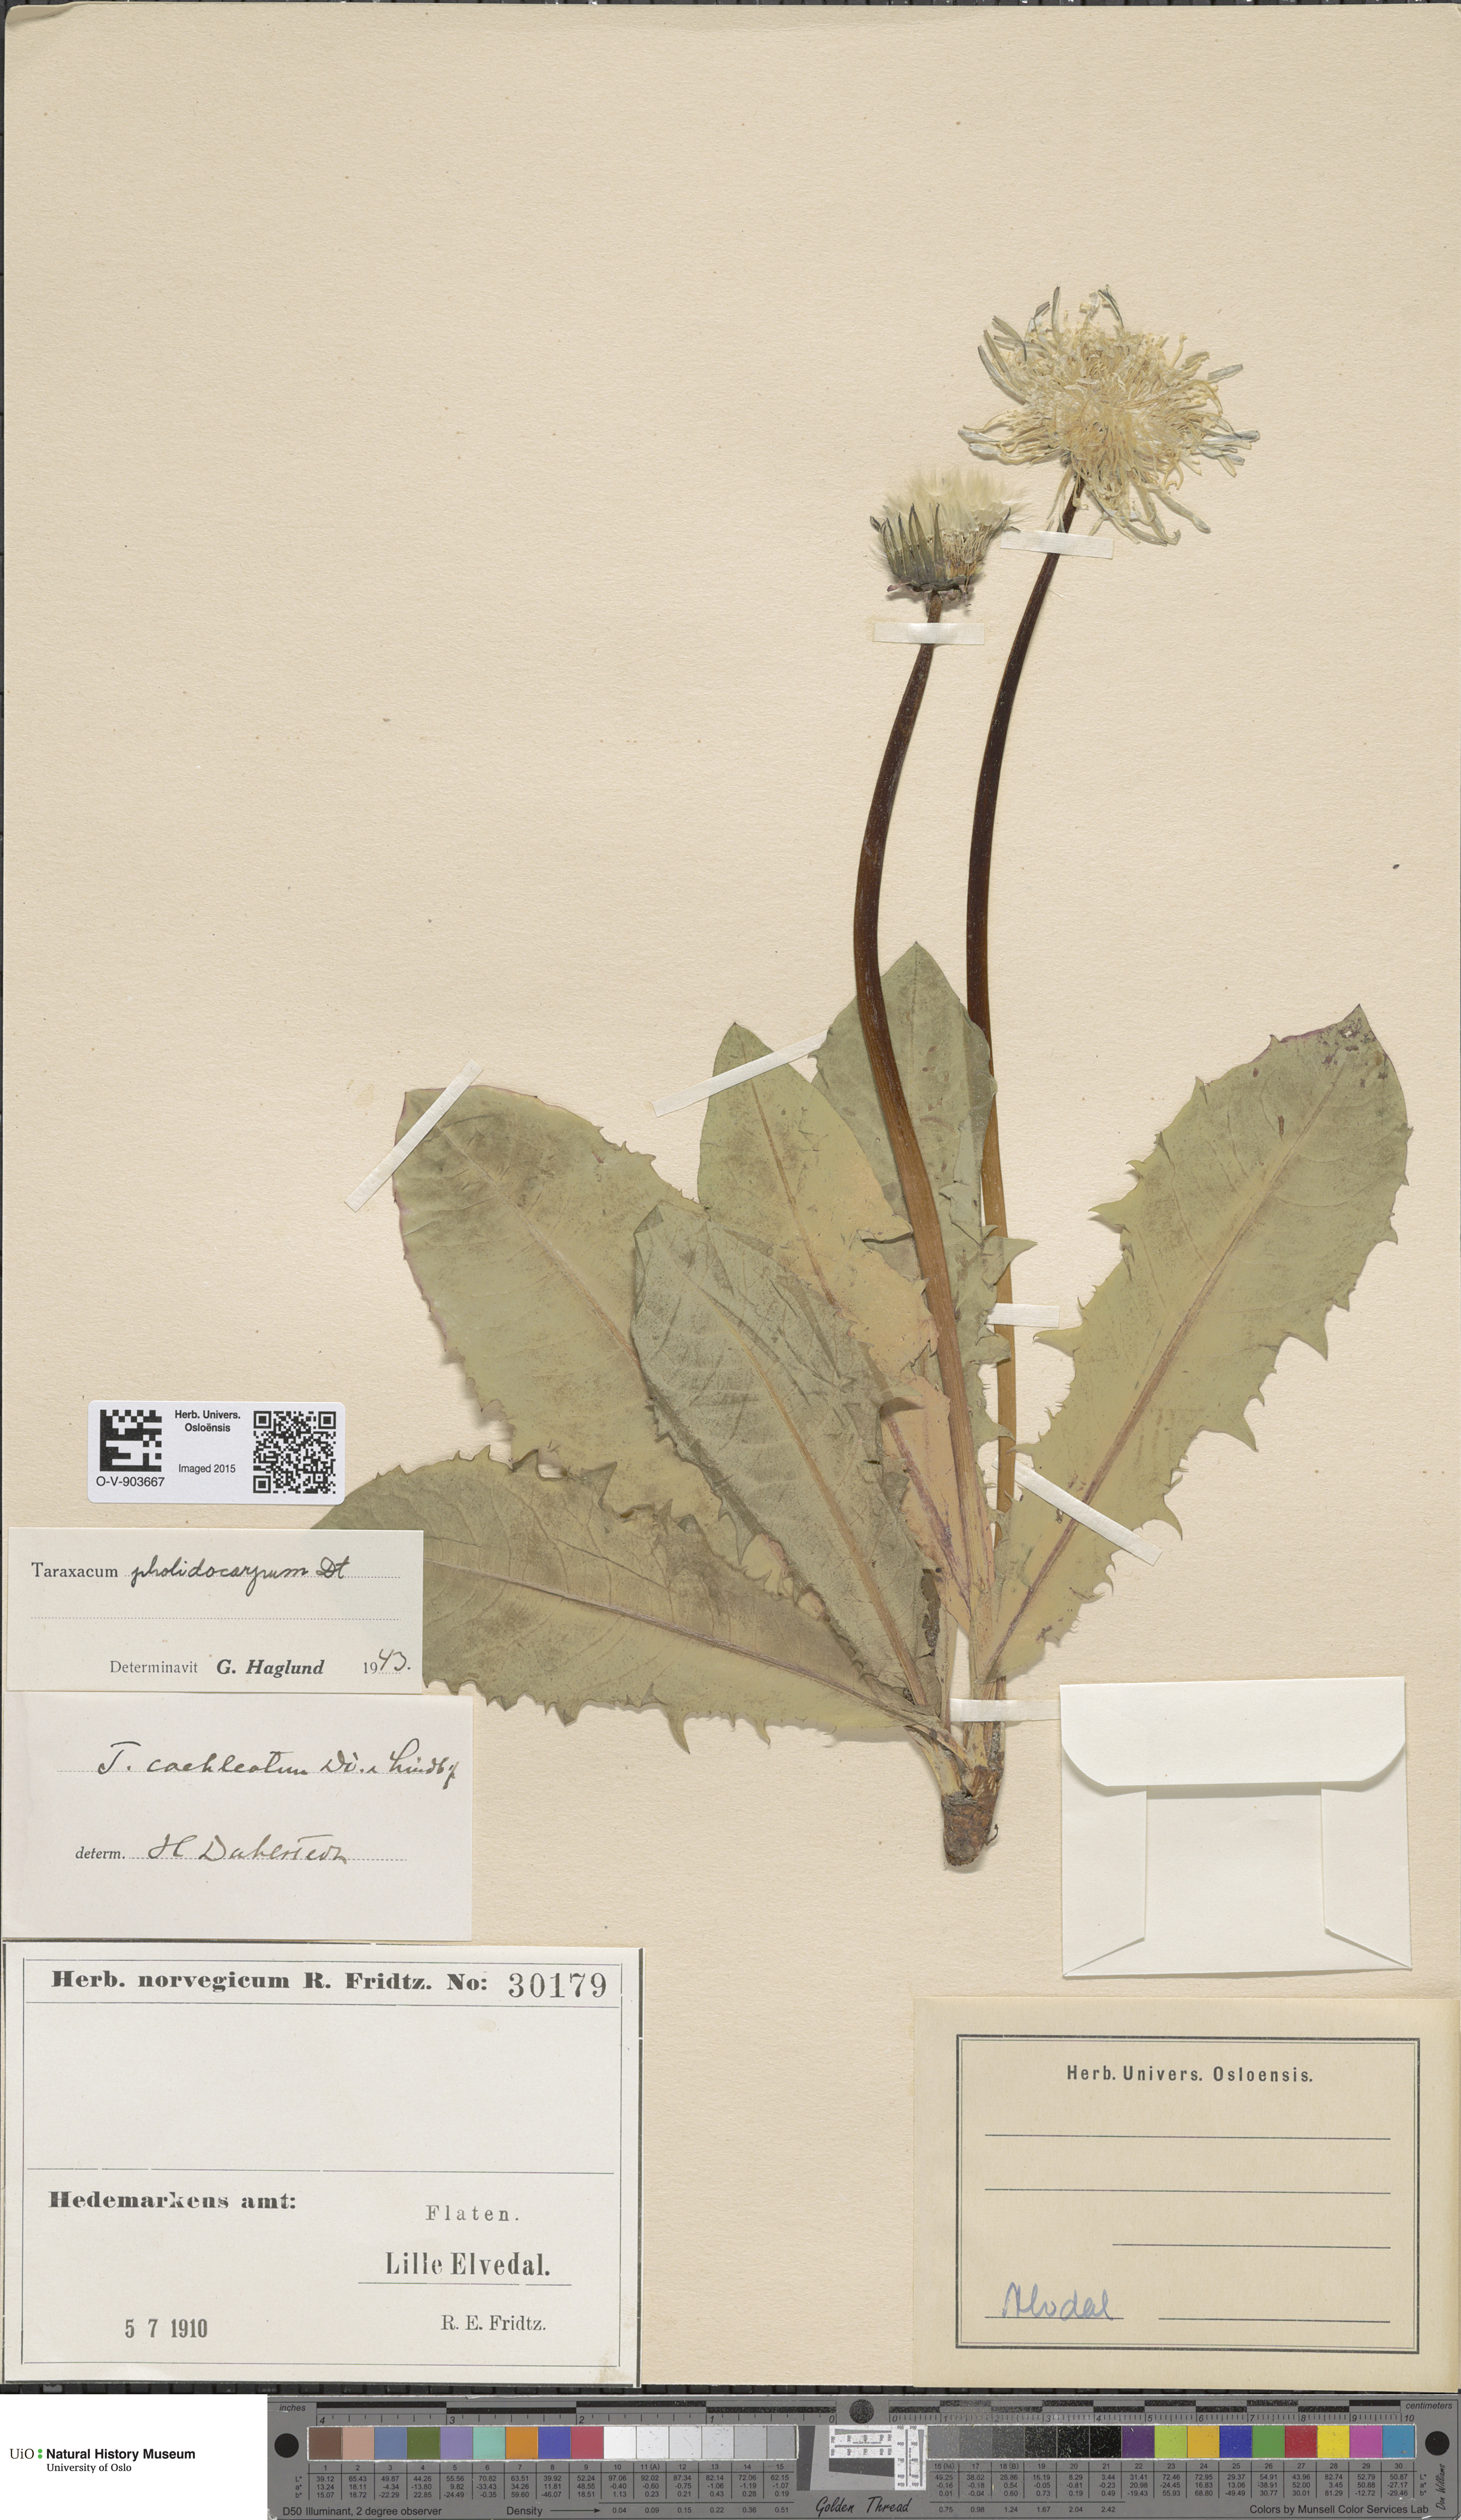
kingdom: Plantae
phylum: Tracheophyta
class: Magnoliopsida
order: Asterales
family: Asteraceae
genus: Taraxacum
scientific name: Taraxacum pholidocarpum
